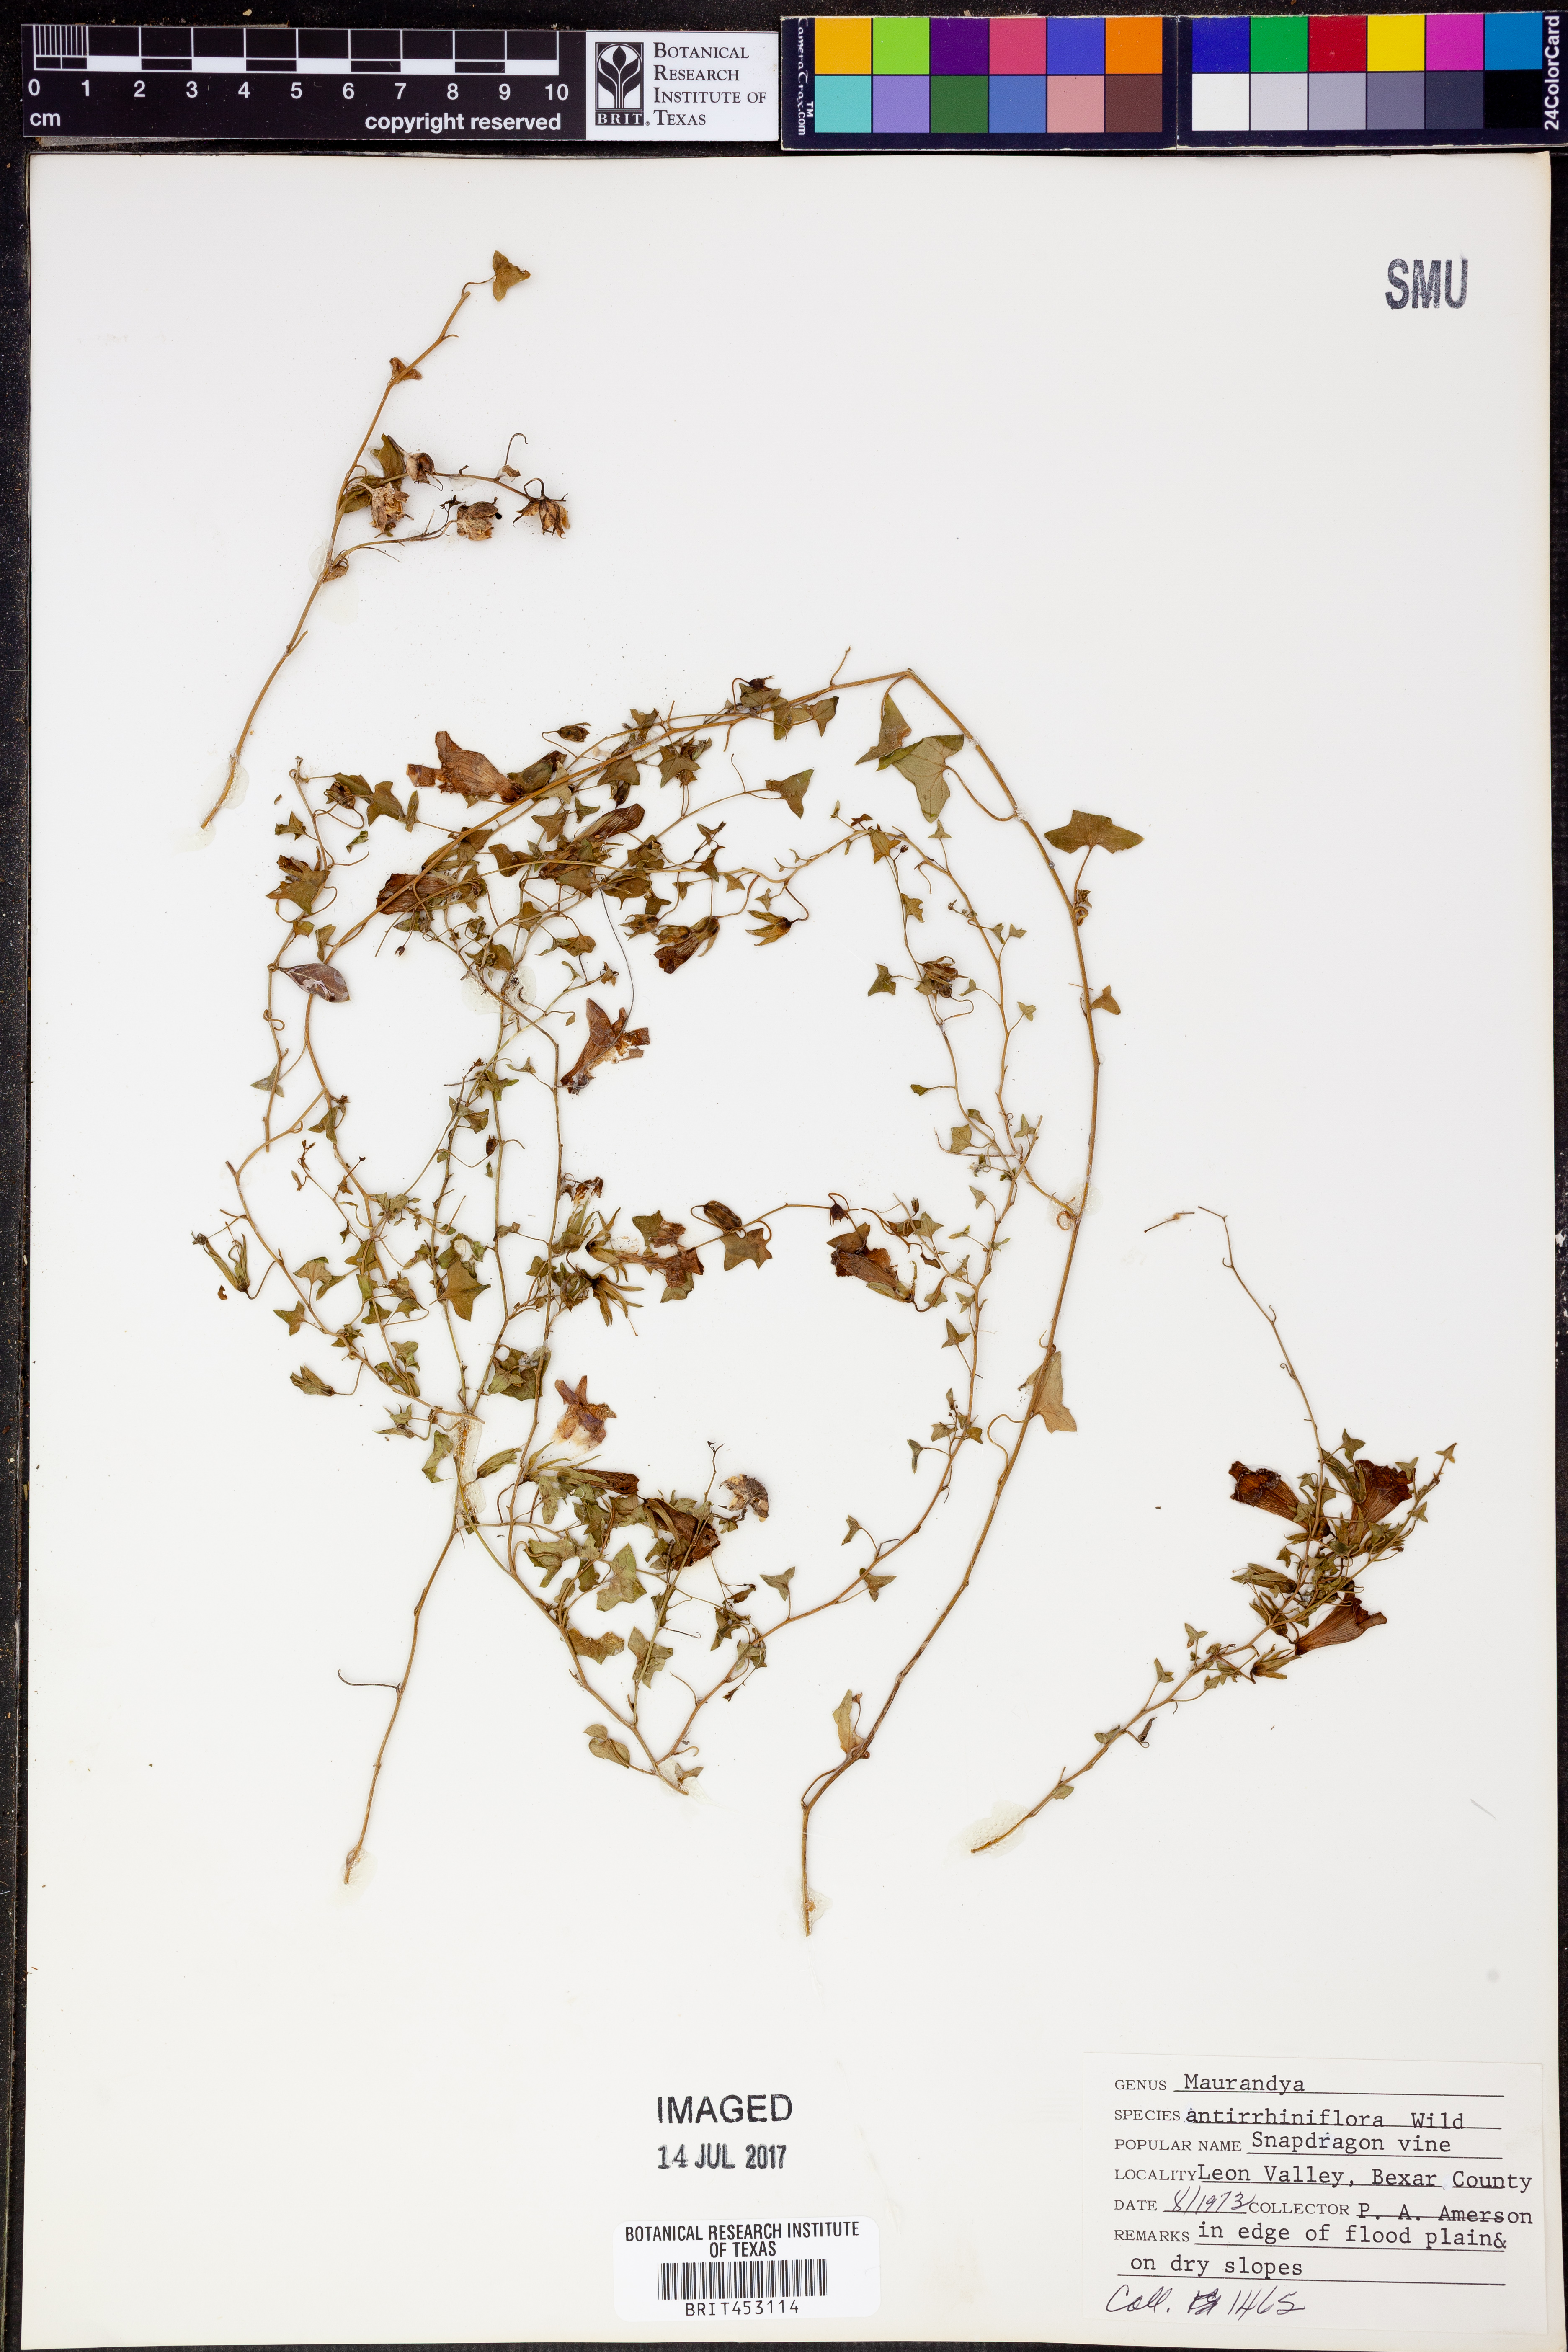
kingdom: Plantae
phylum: Tracheophyta
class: Magnoliopsida
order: Lamiales
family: Plantaginaceae
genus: Maurandella
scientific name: Maurandella antirrhiniflora
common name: Violet twining-snapdragon
